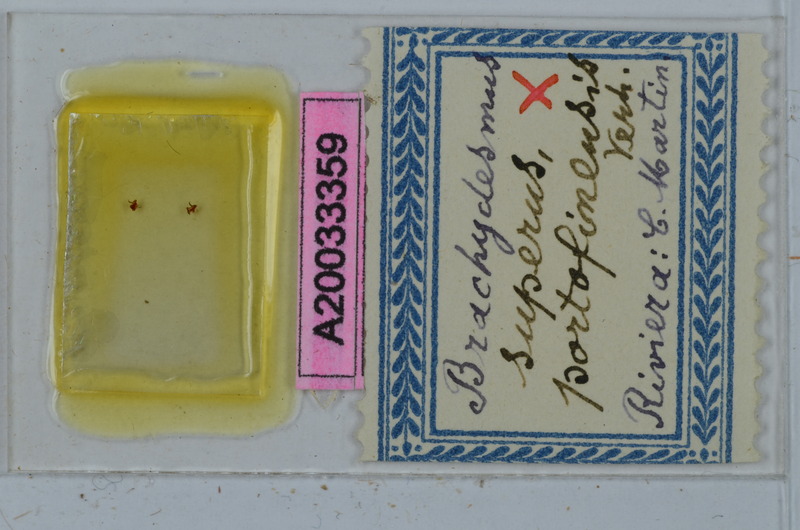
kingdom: Animalia
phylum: Arthropoda
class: Diplopoda
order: Polydesmida
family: Polydesmidae
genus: Brachydesmus
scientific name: Brachydesmus superus
